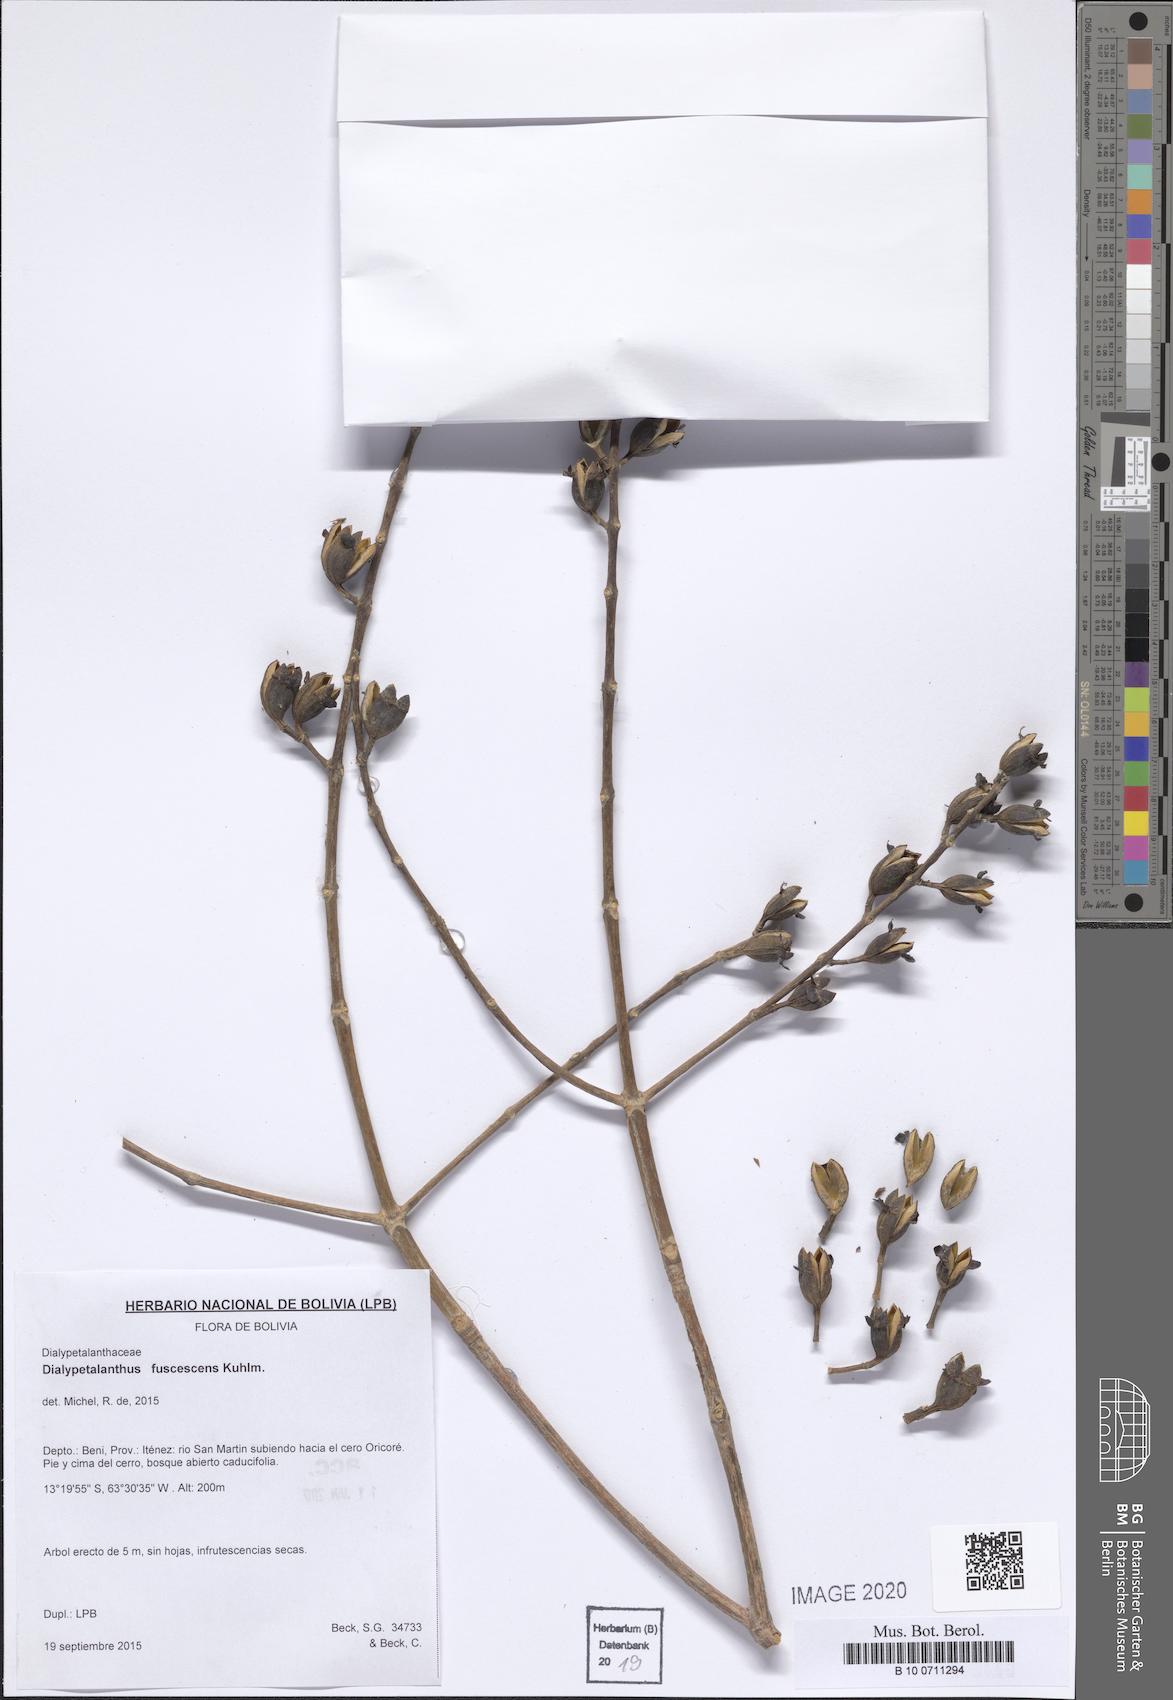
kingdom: Plantae
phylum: Tracheophyta
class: Magnoliopsida
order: Gentianales
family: Rubiaceae
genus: Dialypetalanthus
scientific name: Dialypetalanthus fuscescens
